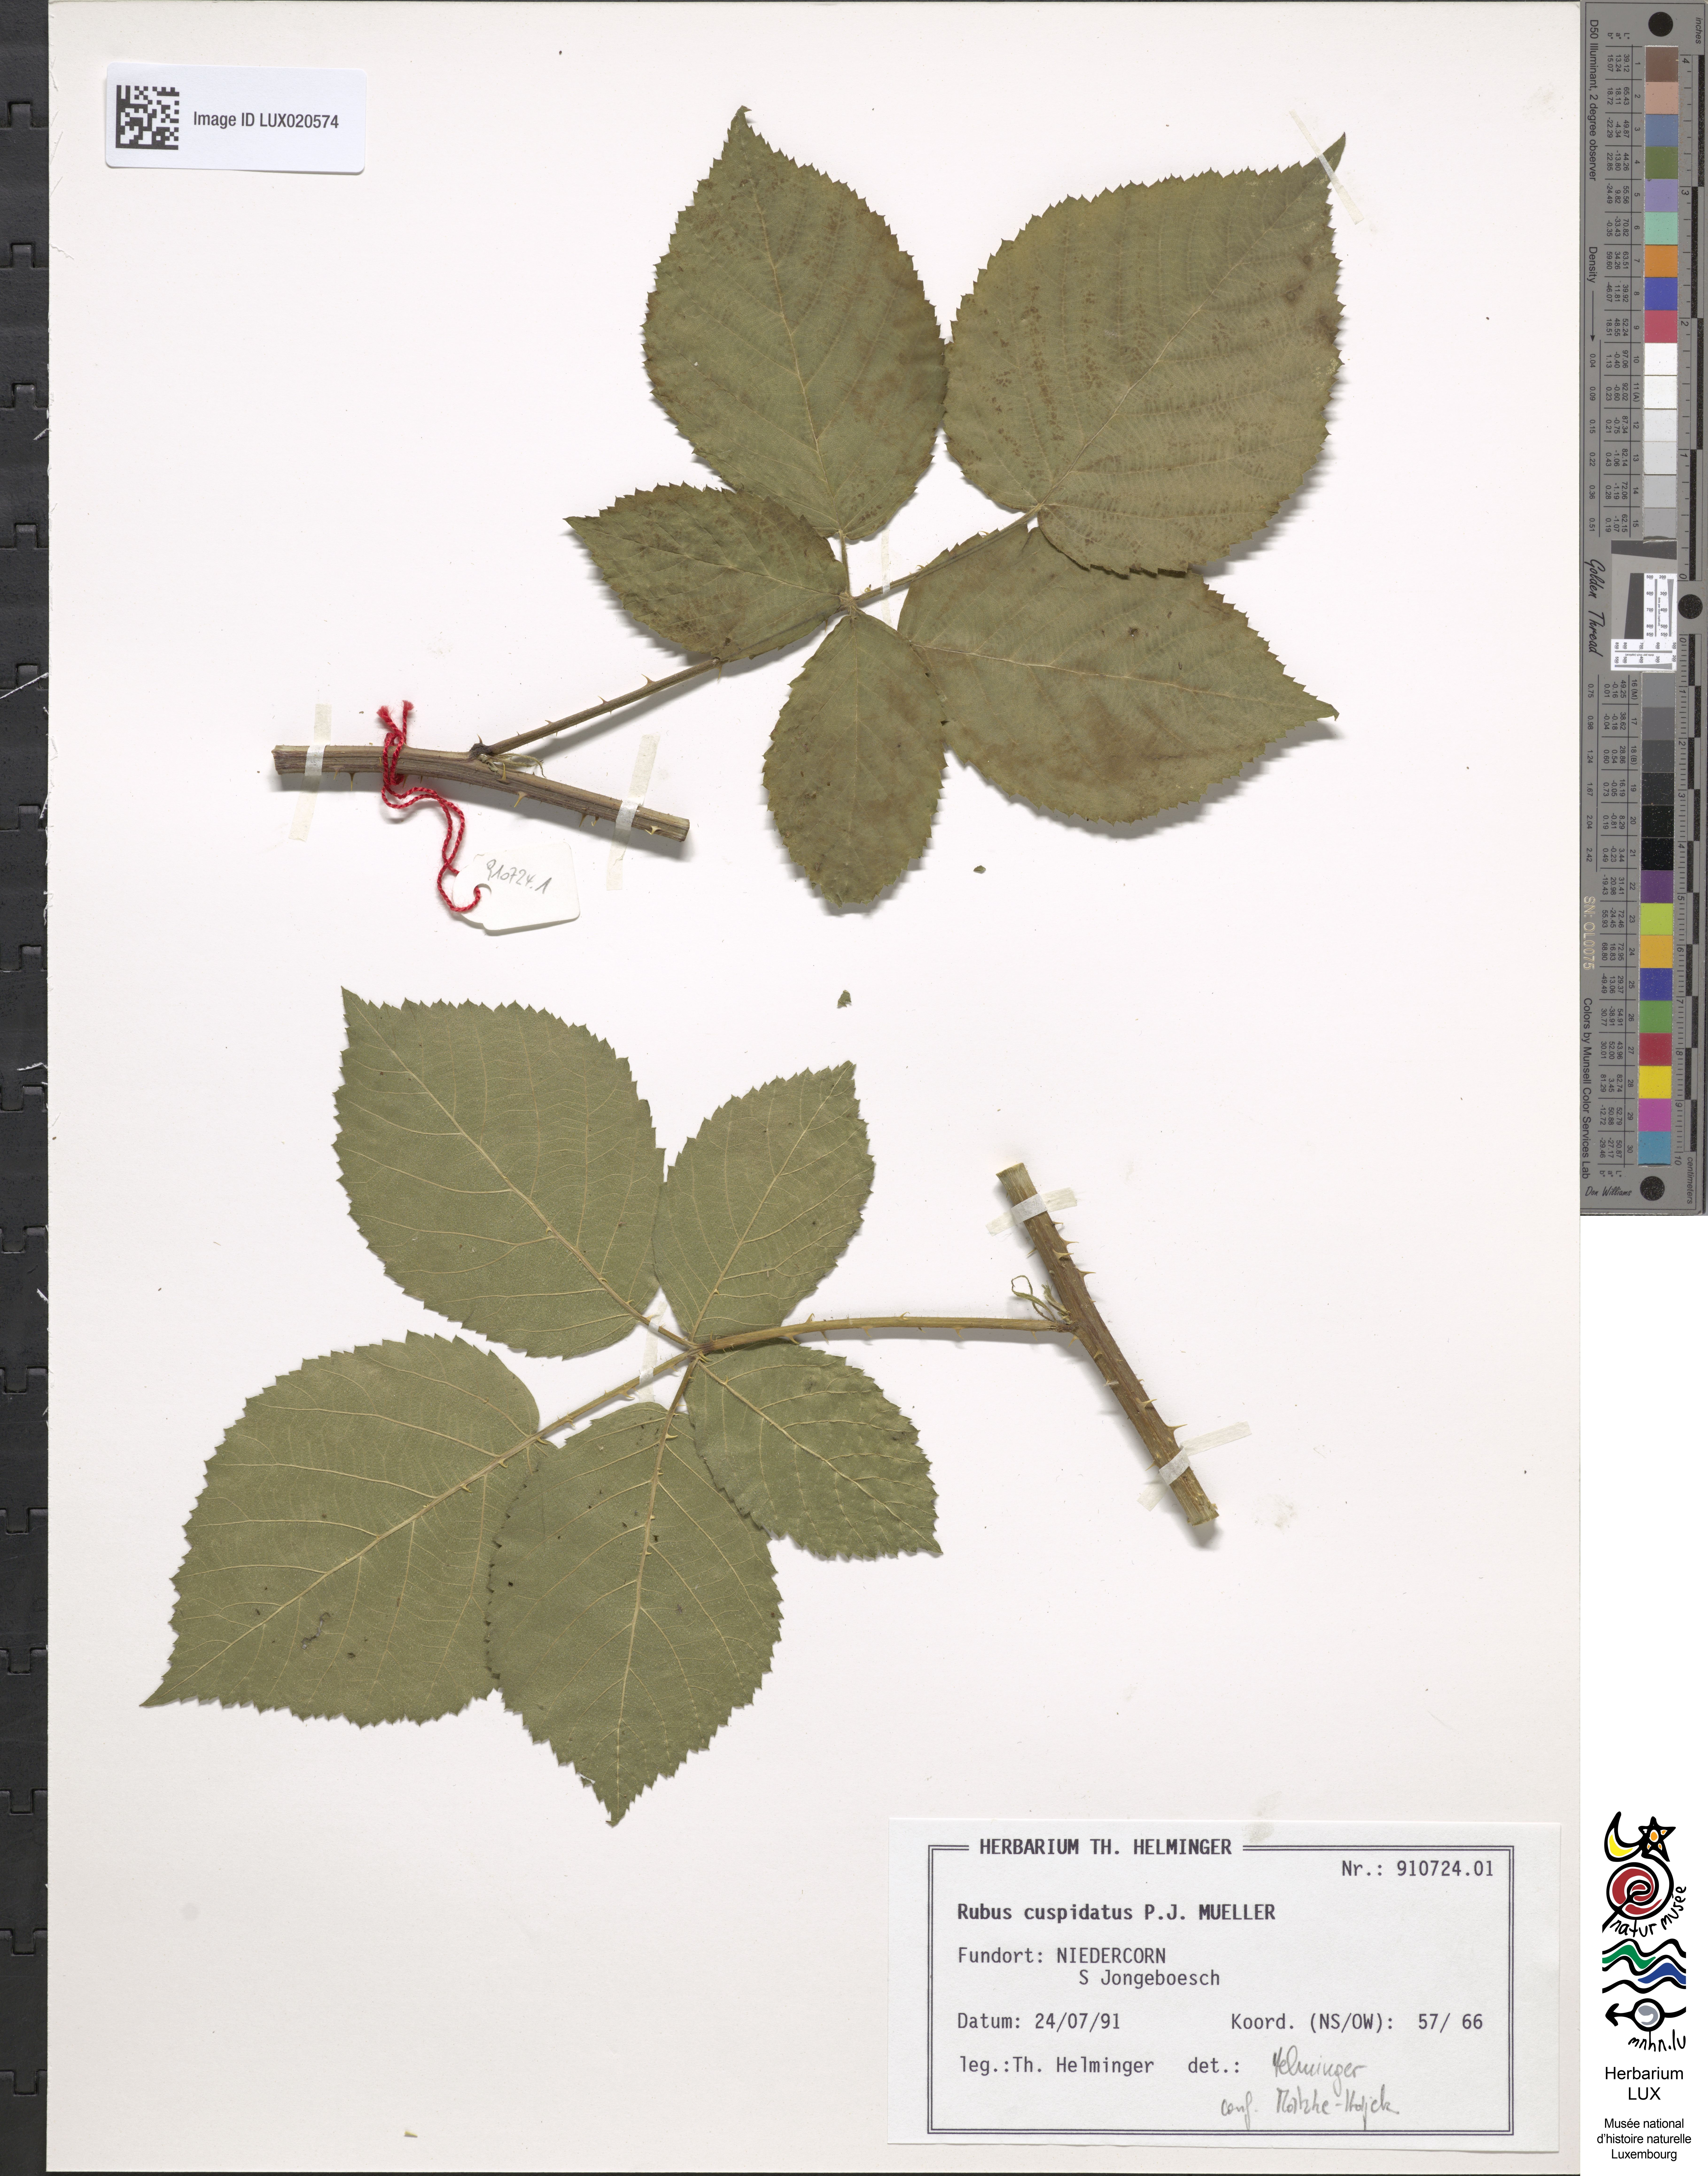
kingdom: Plantae
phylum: Tracheophyta
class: Magnoliopsida
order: Rosales
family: Rosaceae
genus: Rubus
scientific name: Rubus cuspidatus
